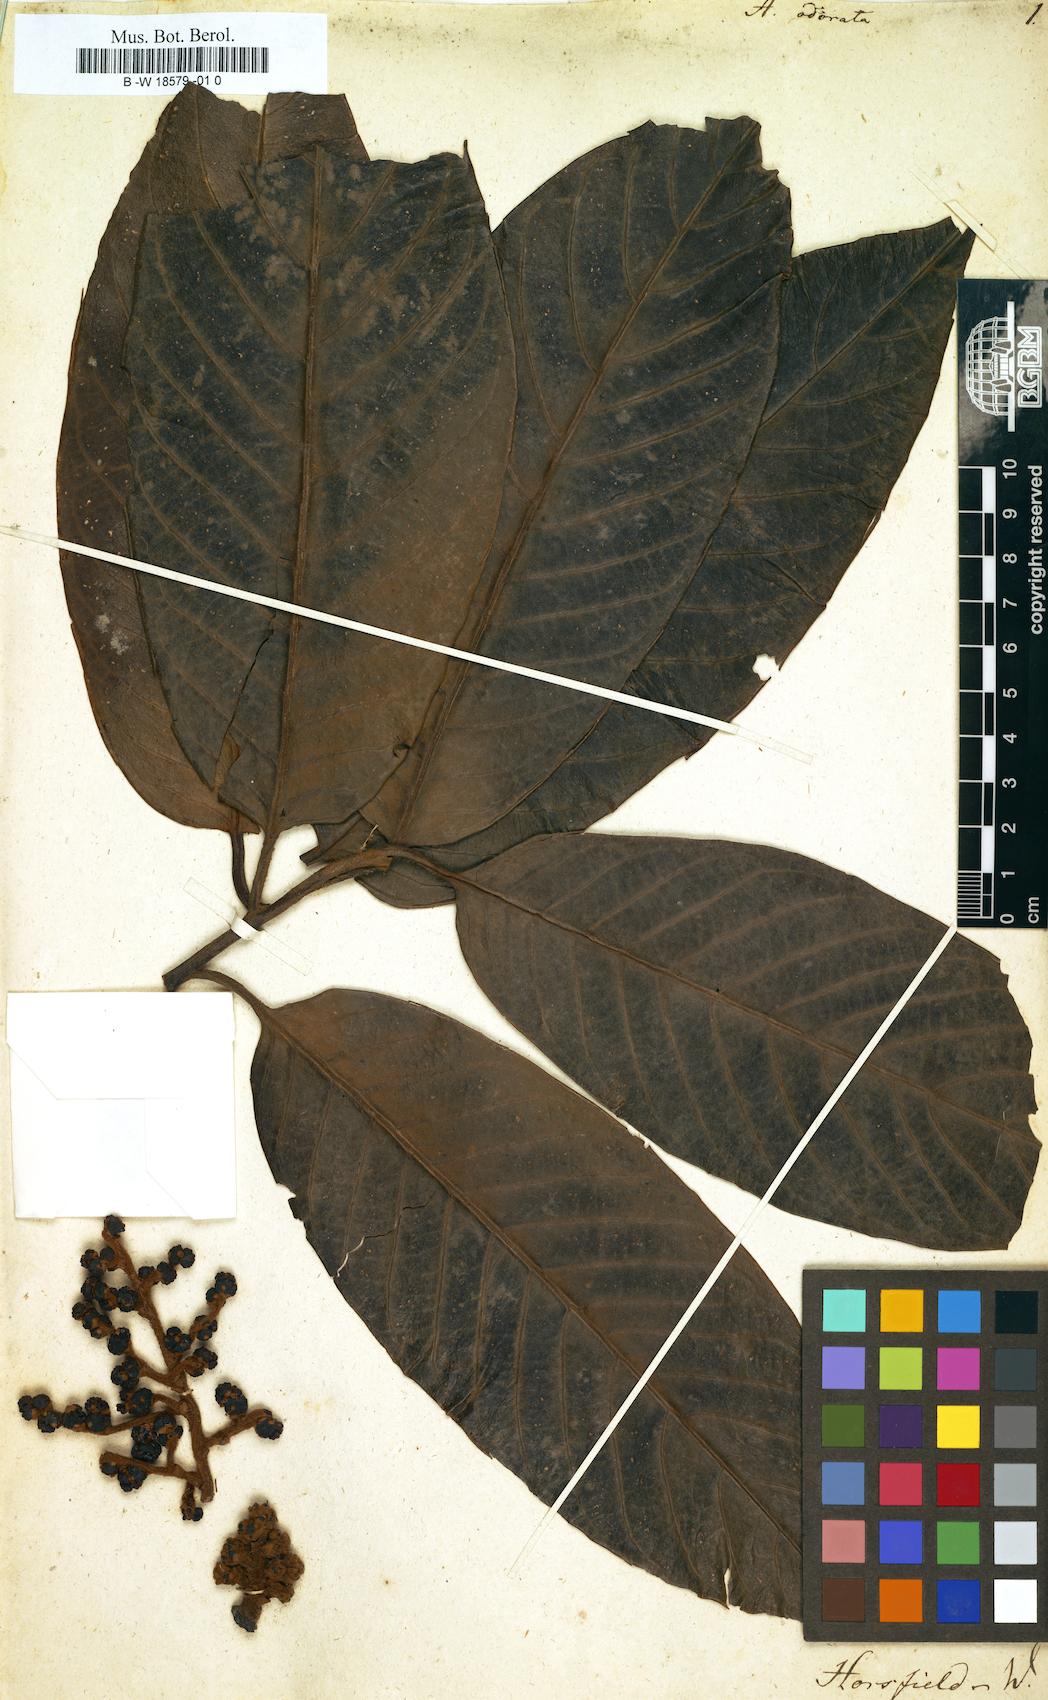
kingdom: Plantae
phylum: Tracheophyta
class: Magnoliopsida
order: Magnoliales
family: Myristicaceae
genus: Horsfieldia
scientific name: Horsfieldia iryaghedhi
